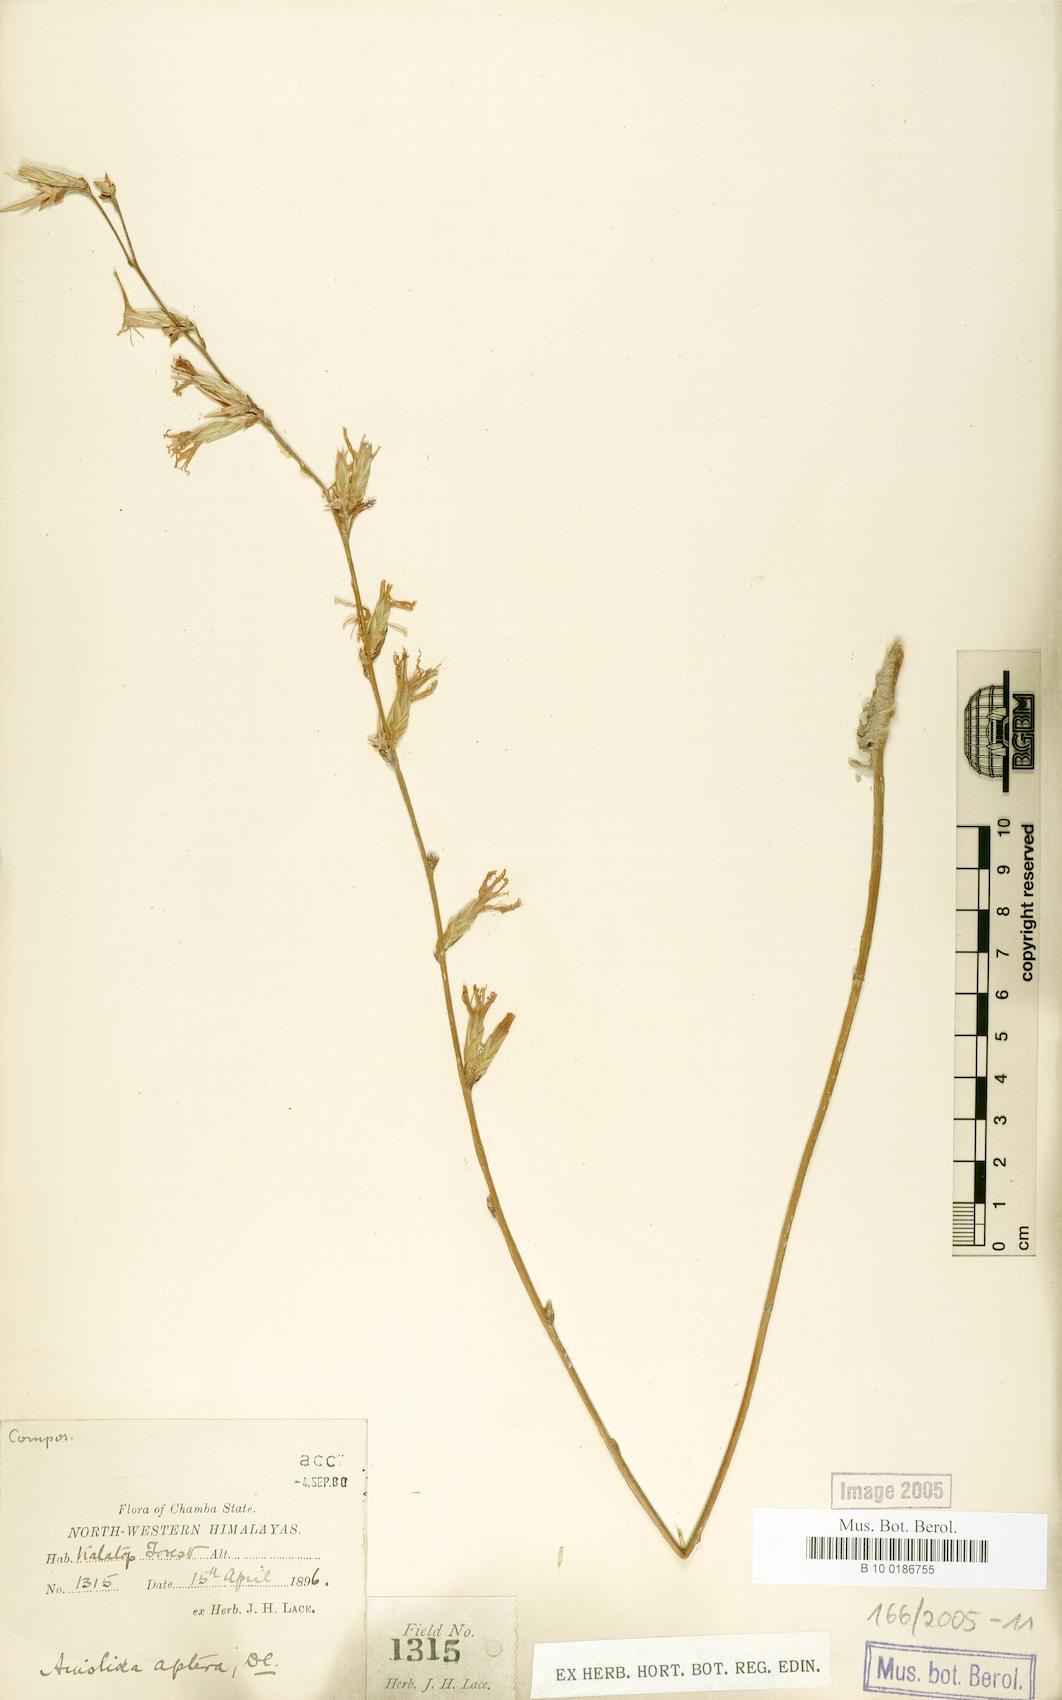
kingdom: Plantae
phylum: Tracheophyta
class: Magnoliopsida
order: Asterales
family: Asteraceae
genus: Ainsliaea
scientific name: Ainsliaea aptera
